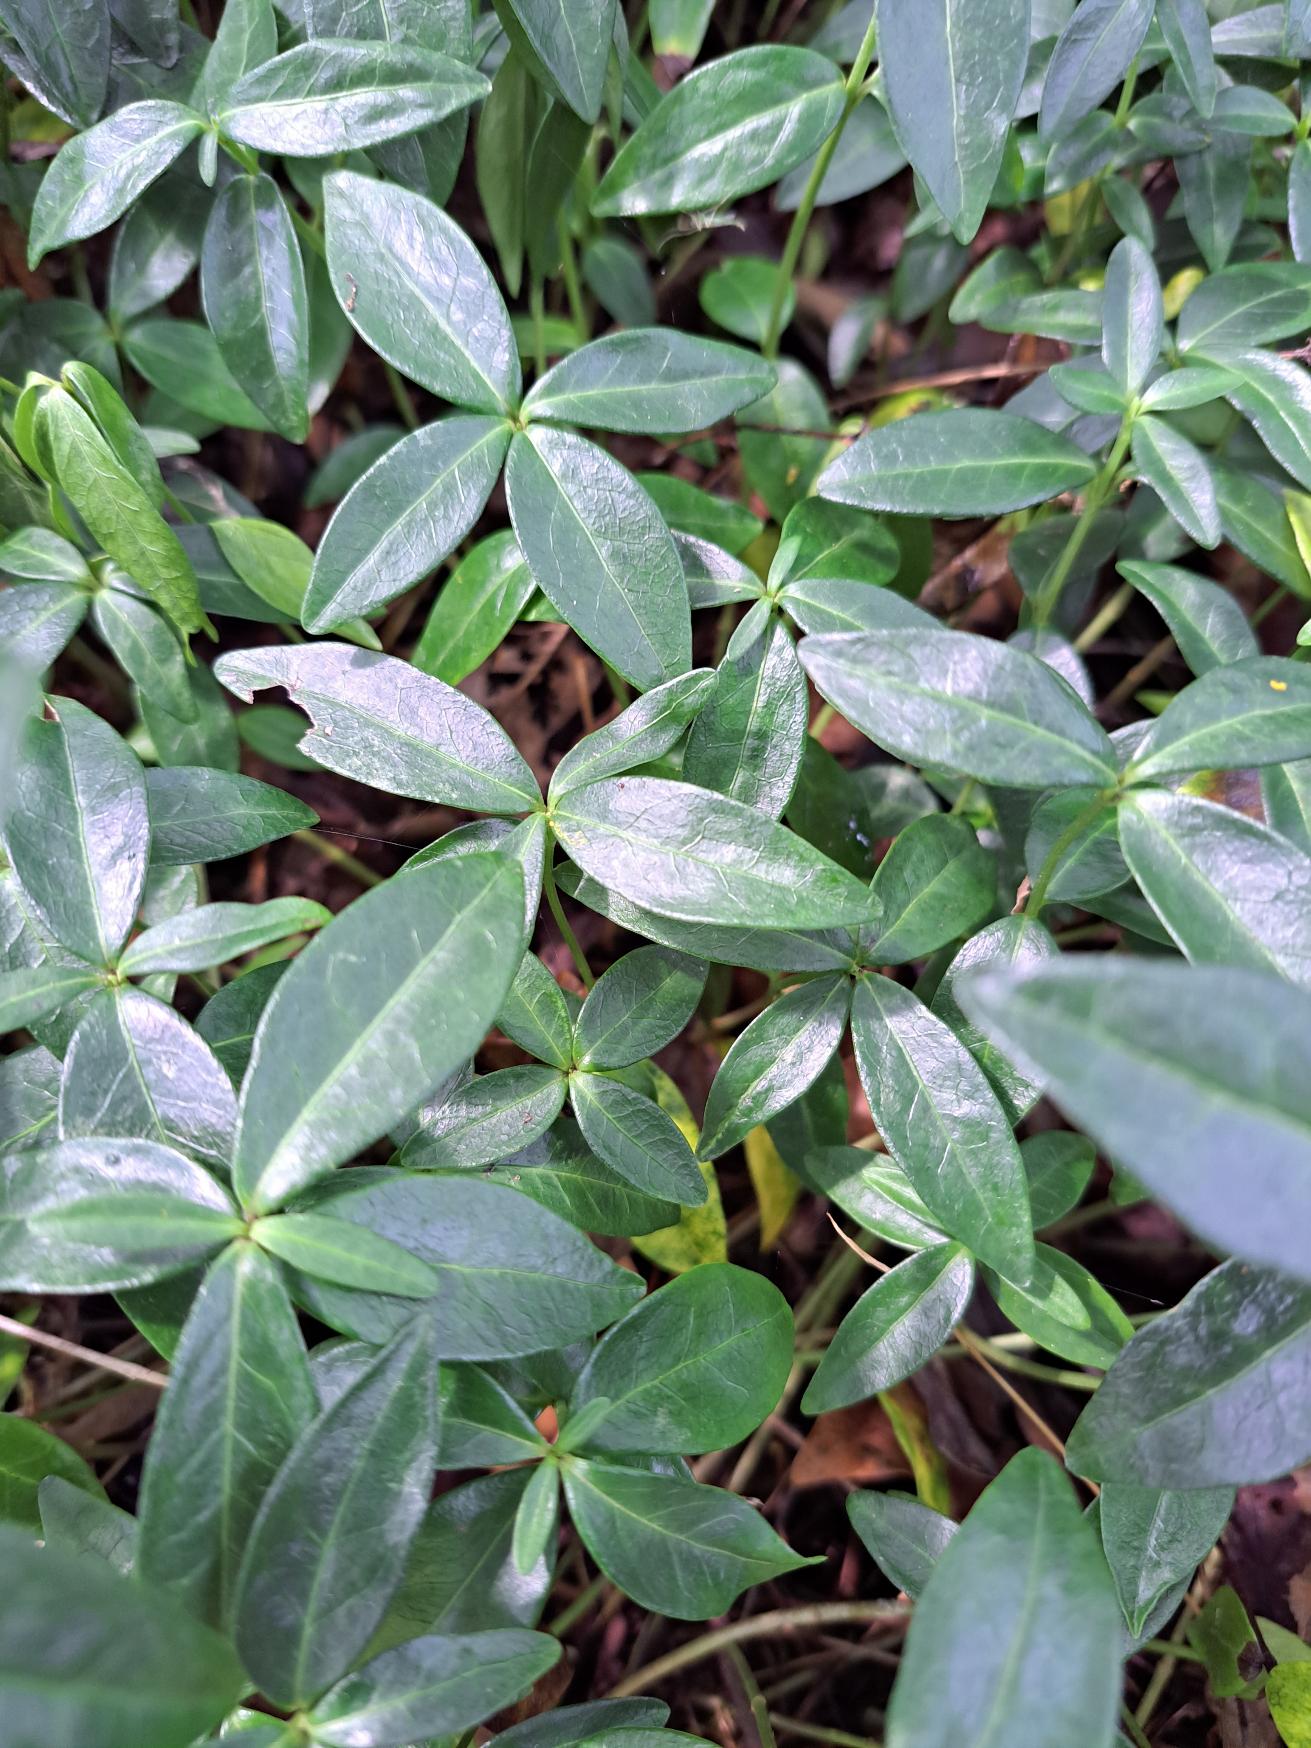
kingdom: Plantae
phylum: Tracheophyta
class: Magnoliopsida
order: Gentianales
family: Apocynaceae
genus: Vinca
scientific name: Vinca minor
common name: Liden singrøn
